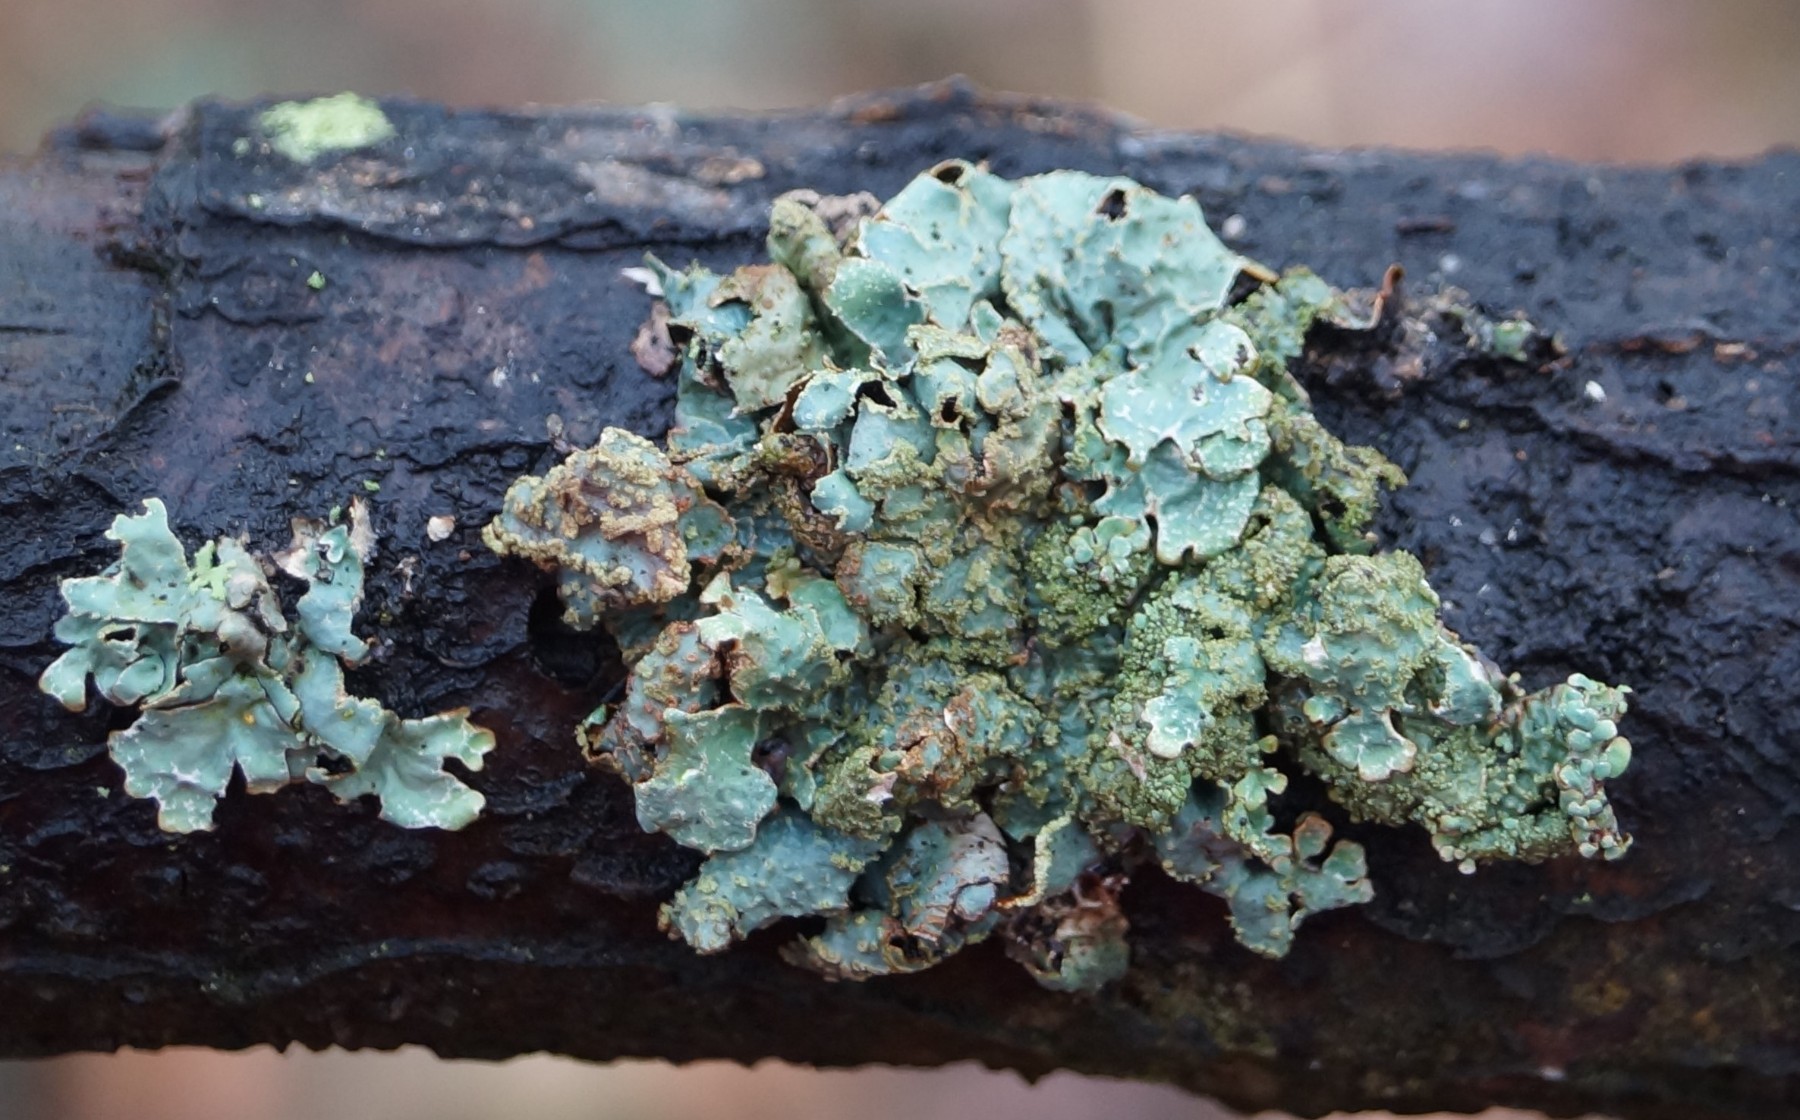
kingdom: Fungi
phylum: Ascomycota
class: Lecanoromycetes
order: Lecanorales
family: Parmeliaceae
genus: Parmelia
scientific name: Parmelia sulcata
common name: rynket skållav
